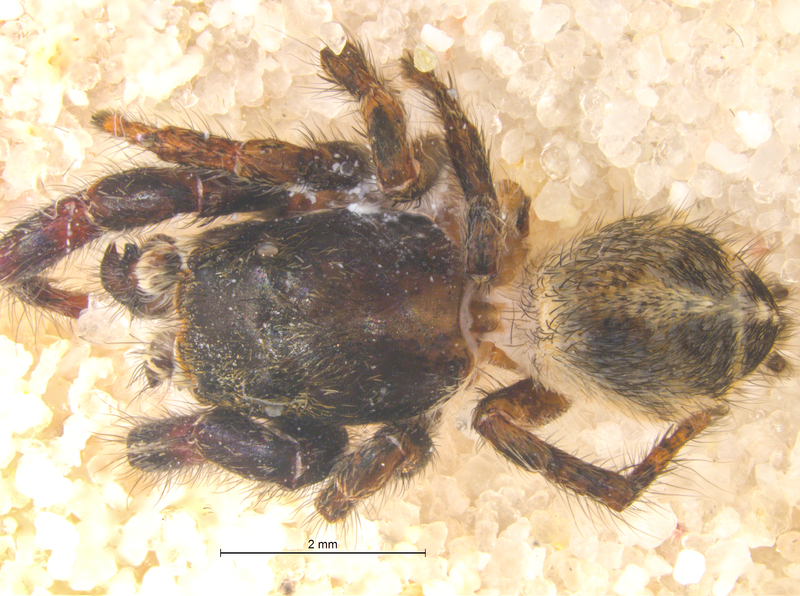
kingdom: Animalia
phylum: Arthropoda
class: Arachnida
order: Araneae
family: Salticidae
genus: Pellenes
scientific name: Pellenes tripunctatus
